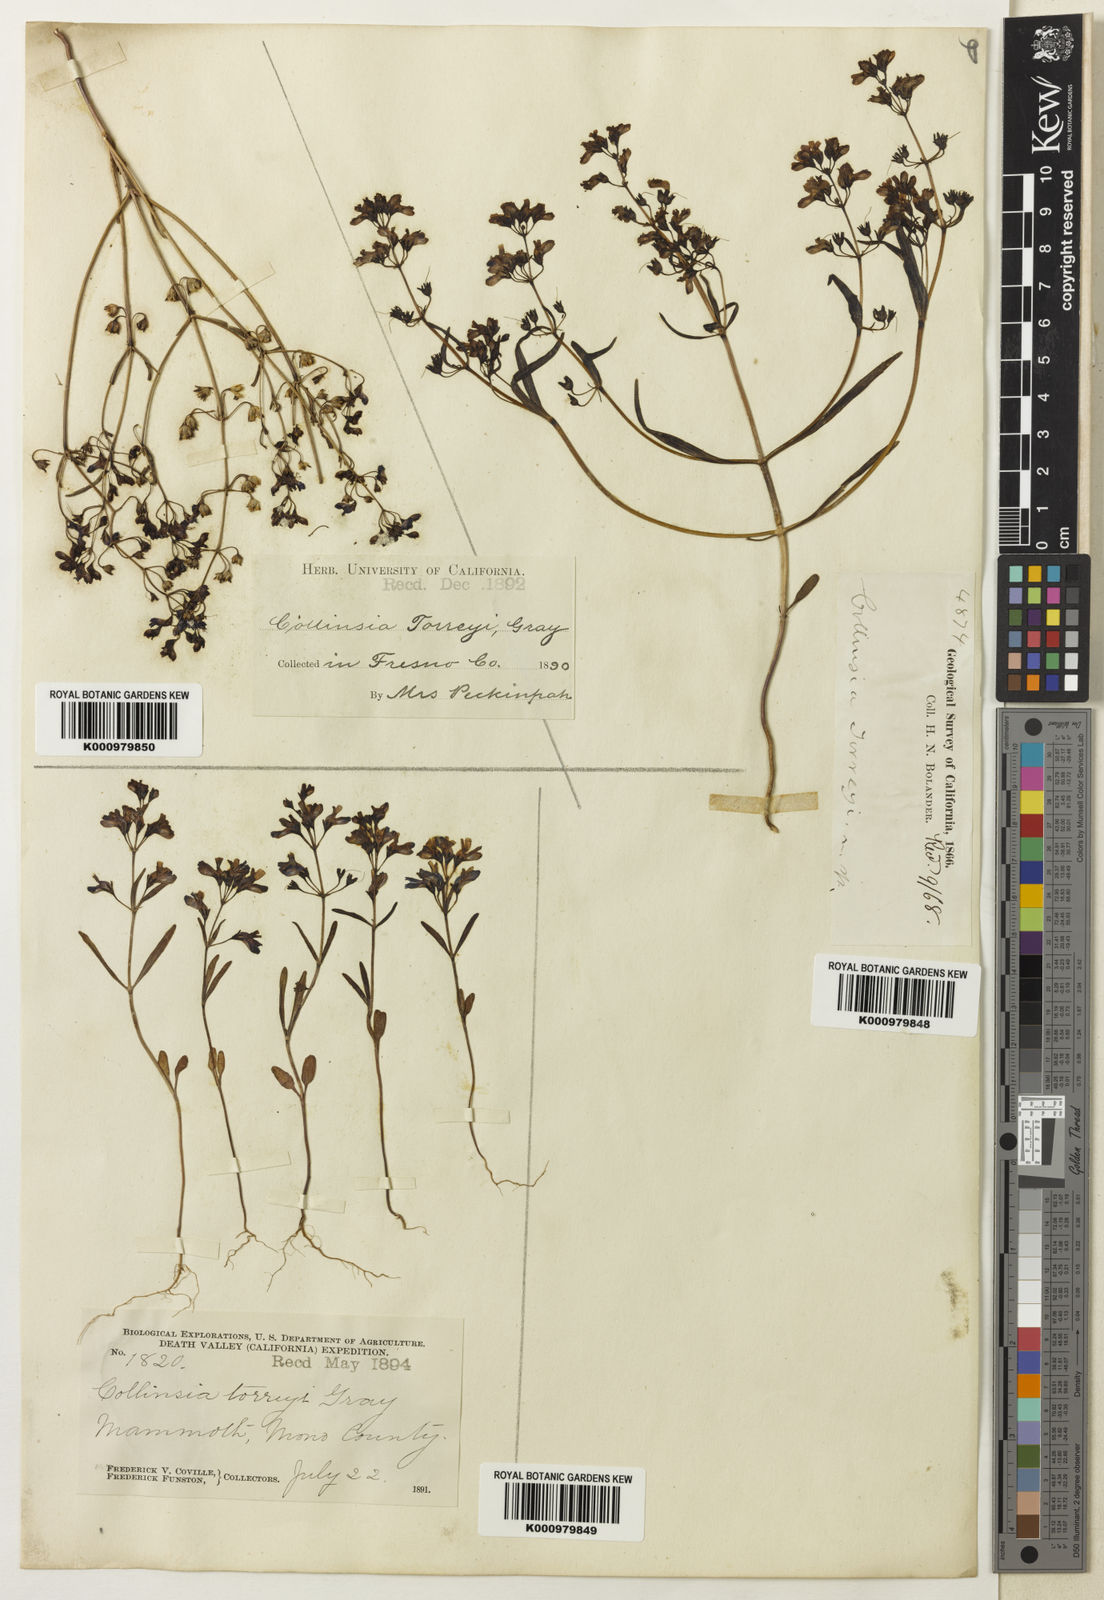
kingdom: Plantae
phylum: Tracheophyta
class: Magnoliopsida
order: Lamiales
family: Plantaginaceae
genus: Collinsia
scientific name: Collinsia torreyi
